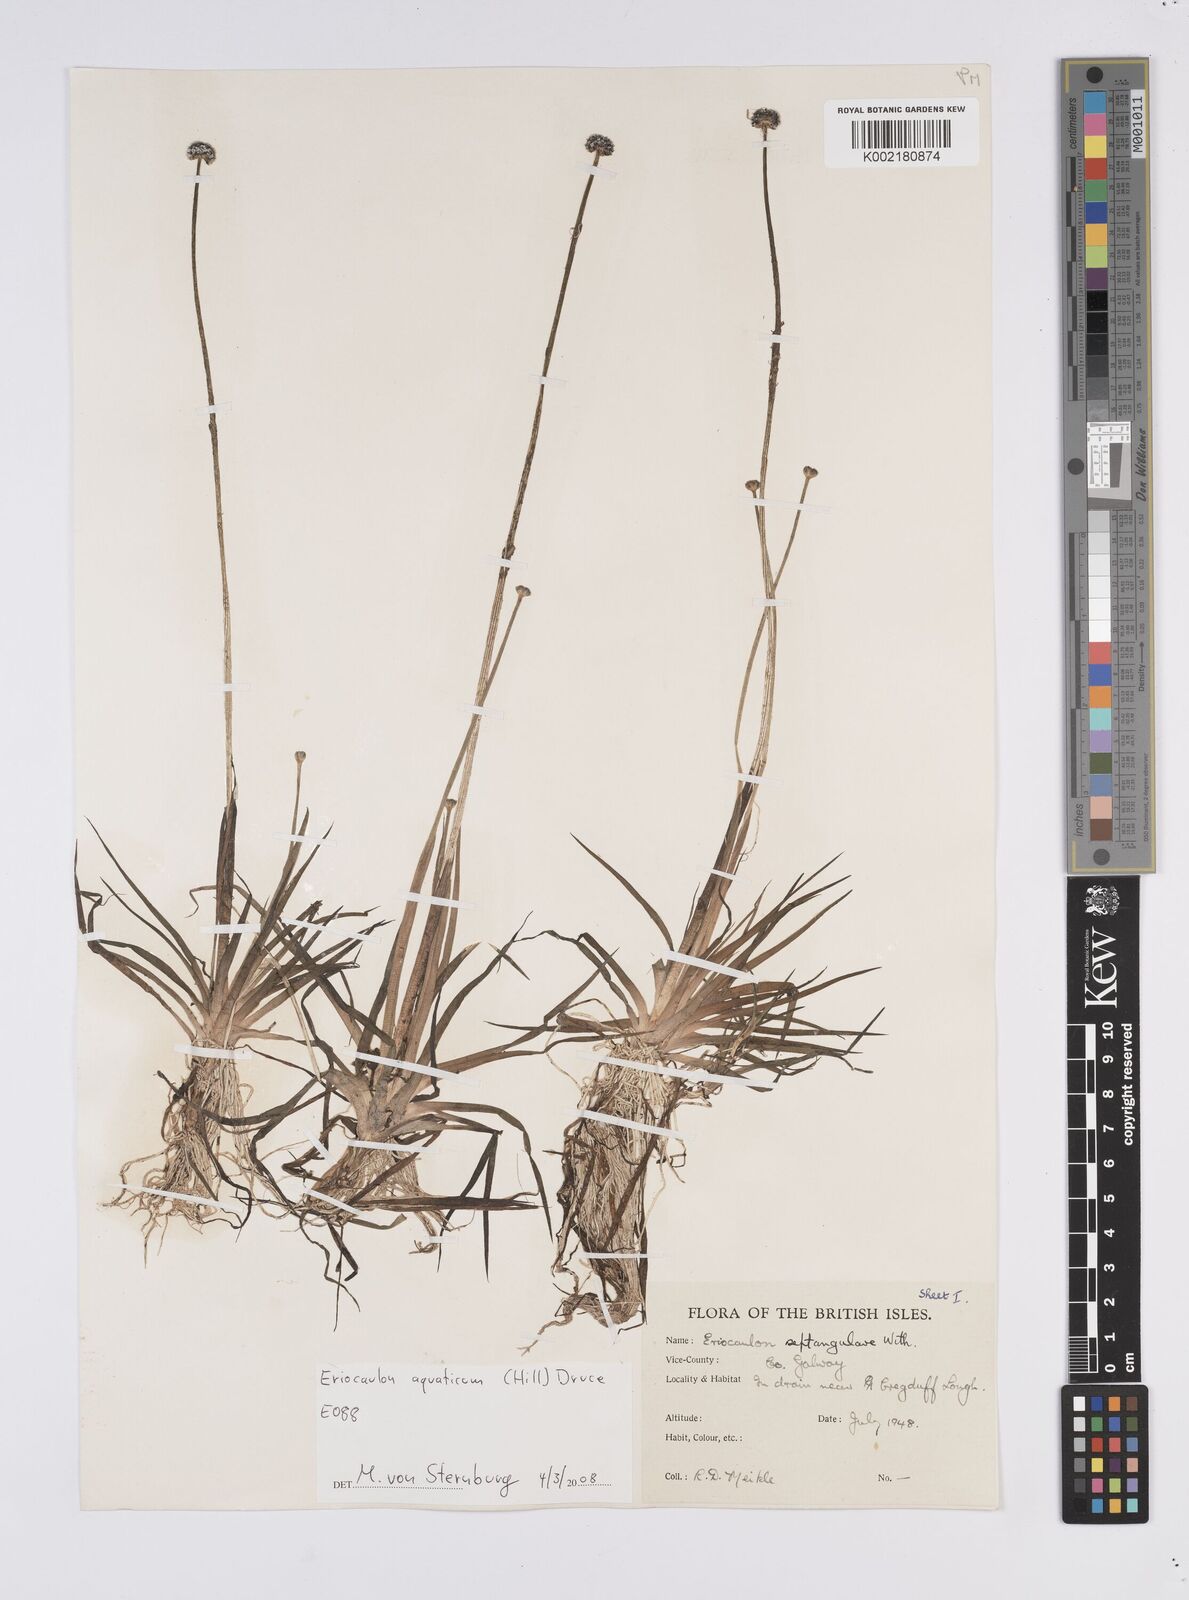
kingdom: Plantae
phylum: Tracheophyta
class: Liliopsida
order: Poales
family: Eriocaulaceae
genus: Eriocaulon
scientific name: Eriocaulon aquaticum
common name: Pipewort
